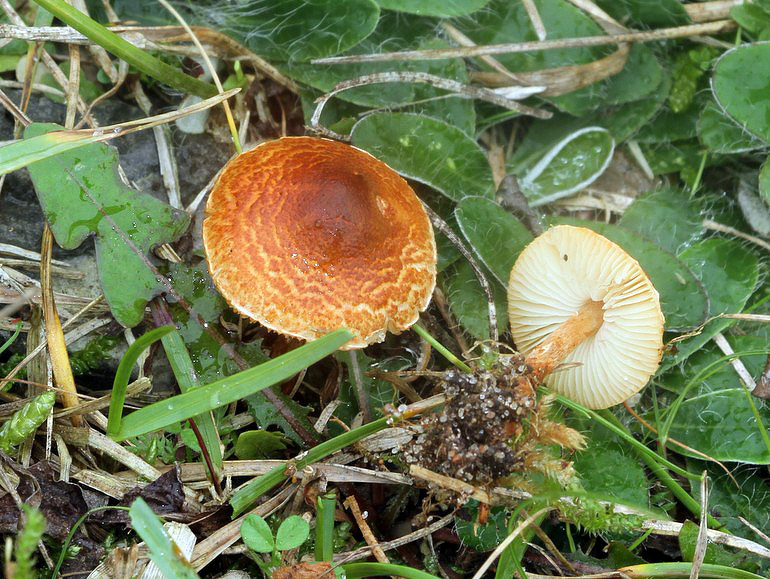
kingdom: Fungi
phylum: Basidiomycota
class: Agaricomycetes
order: Agaricales
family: Agaricaceae
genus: Lepiota
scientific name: Lepiota castanea
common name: kastaniebrun parasolhat
